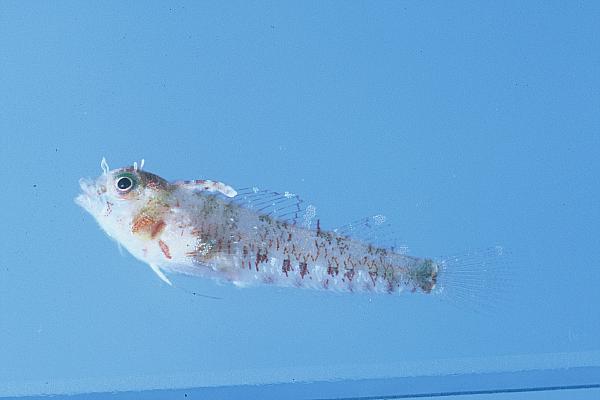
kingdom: Animalia
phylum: Chordata
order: Perciformes
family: Tripterygiidae
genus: Enneapterygius
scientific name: Enneapterygius abeli
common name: Yellow triplefin
